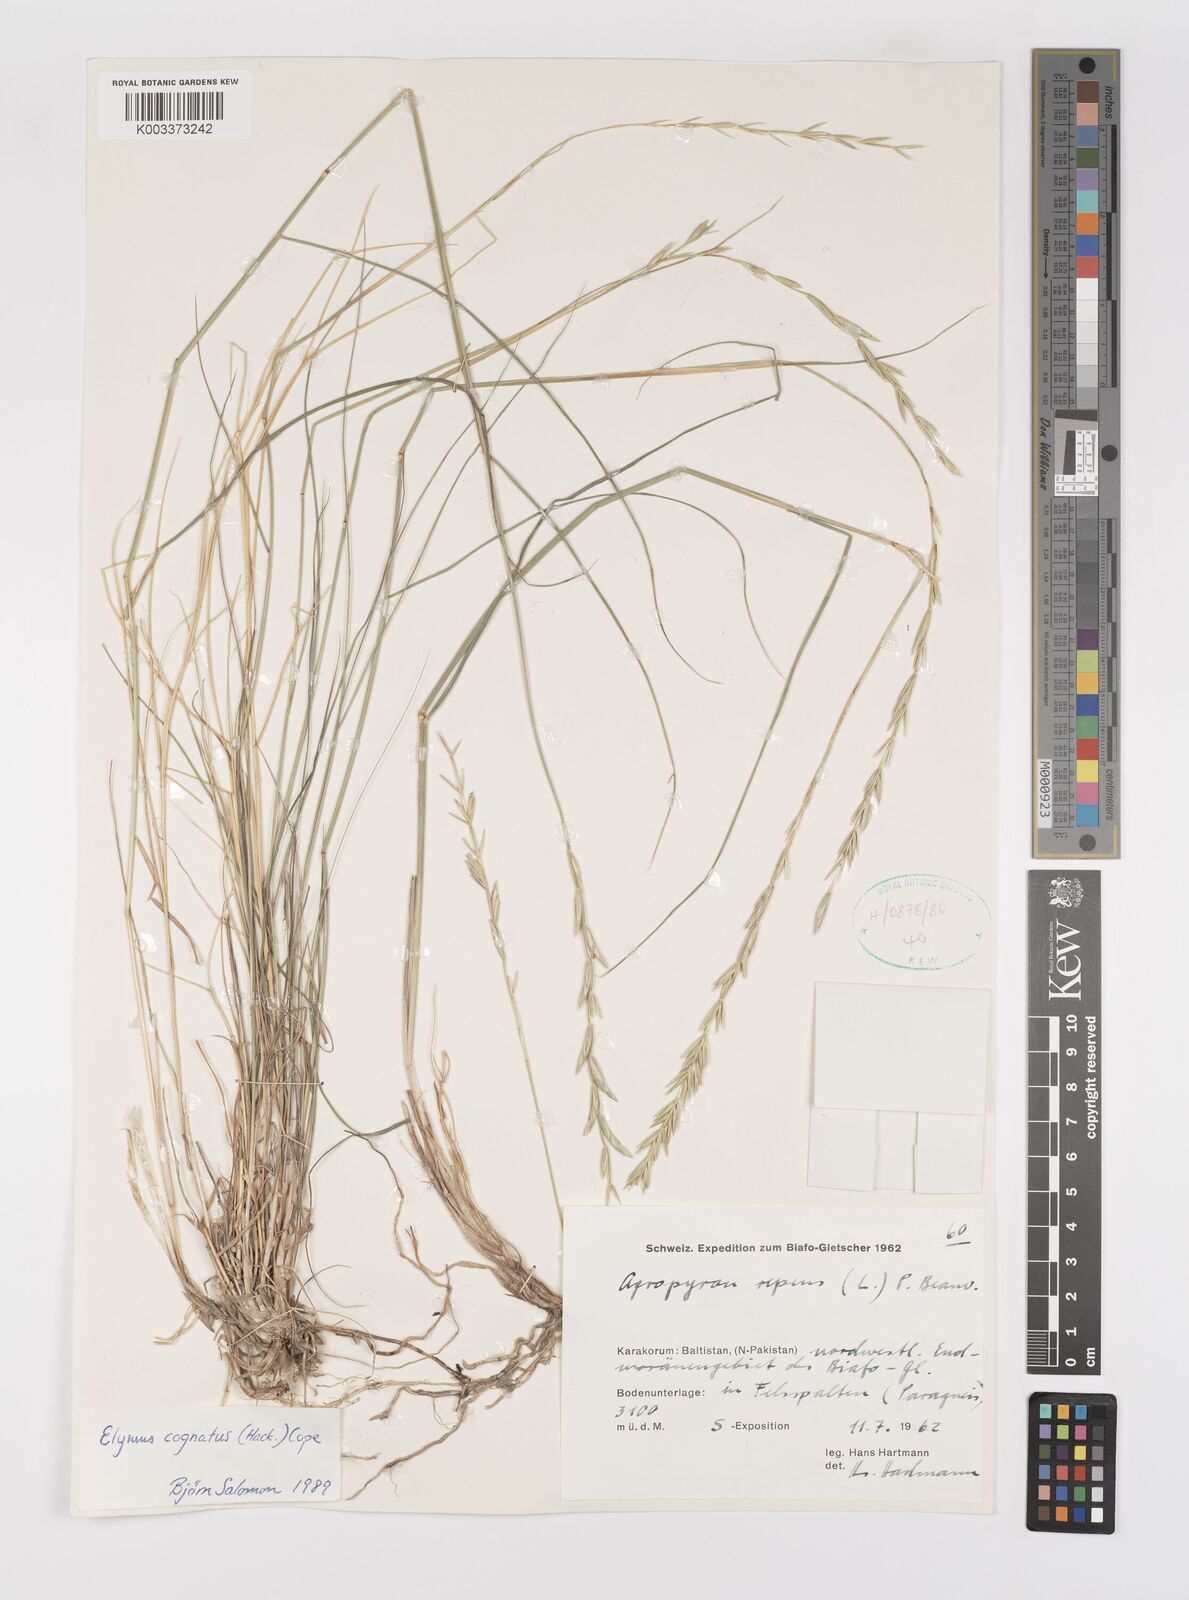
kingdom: Plantae
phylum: Tracheophyta
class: Liliopsida
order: Poales
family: Poaceae
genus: Pseudoroegneria
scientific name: Pseudoroegneria cognata
